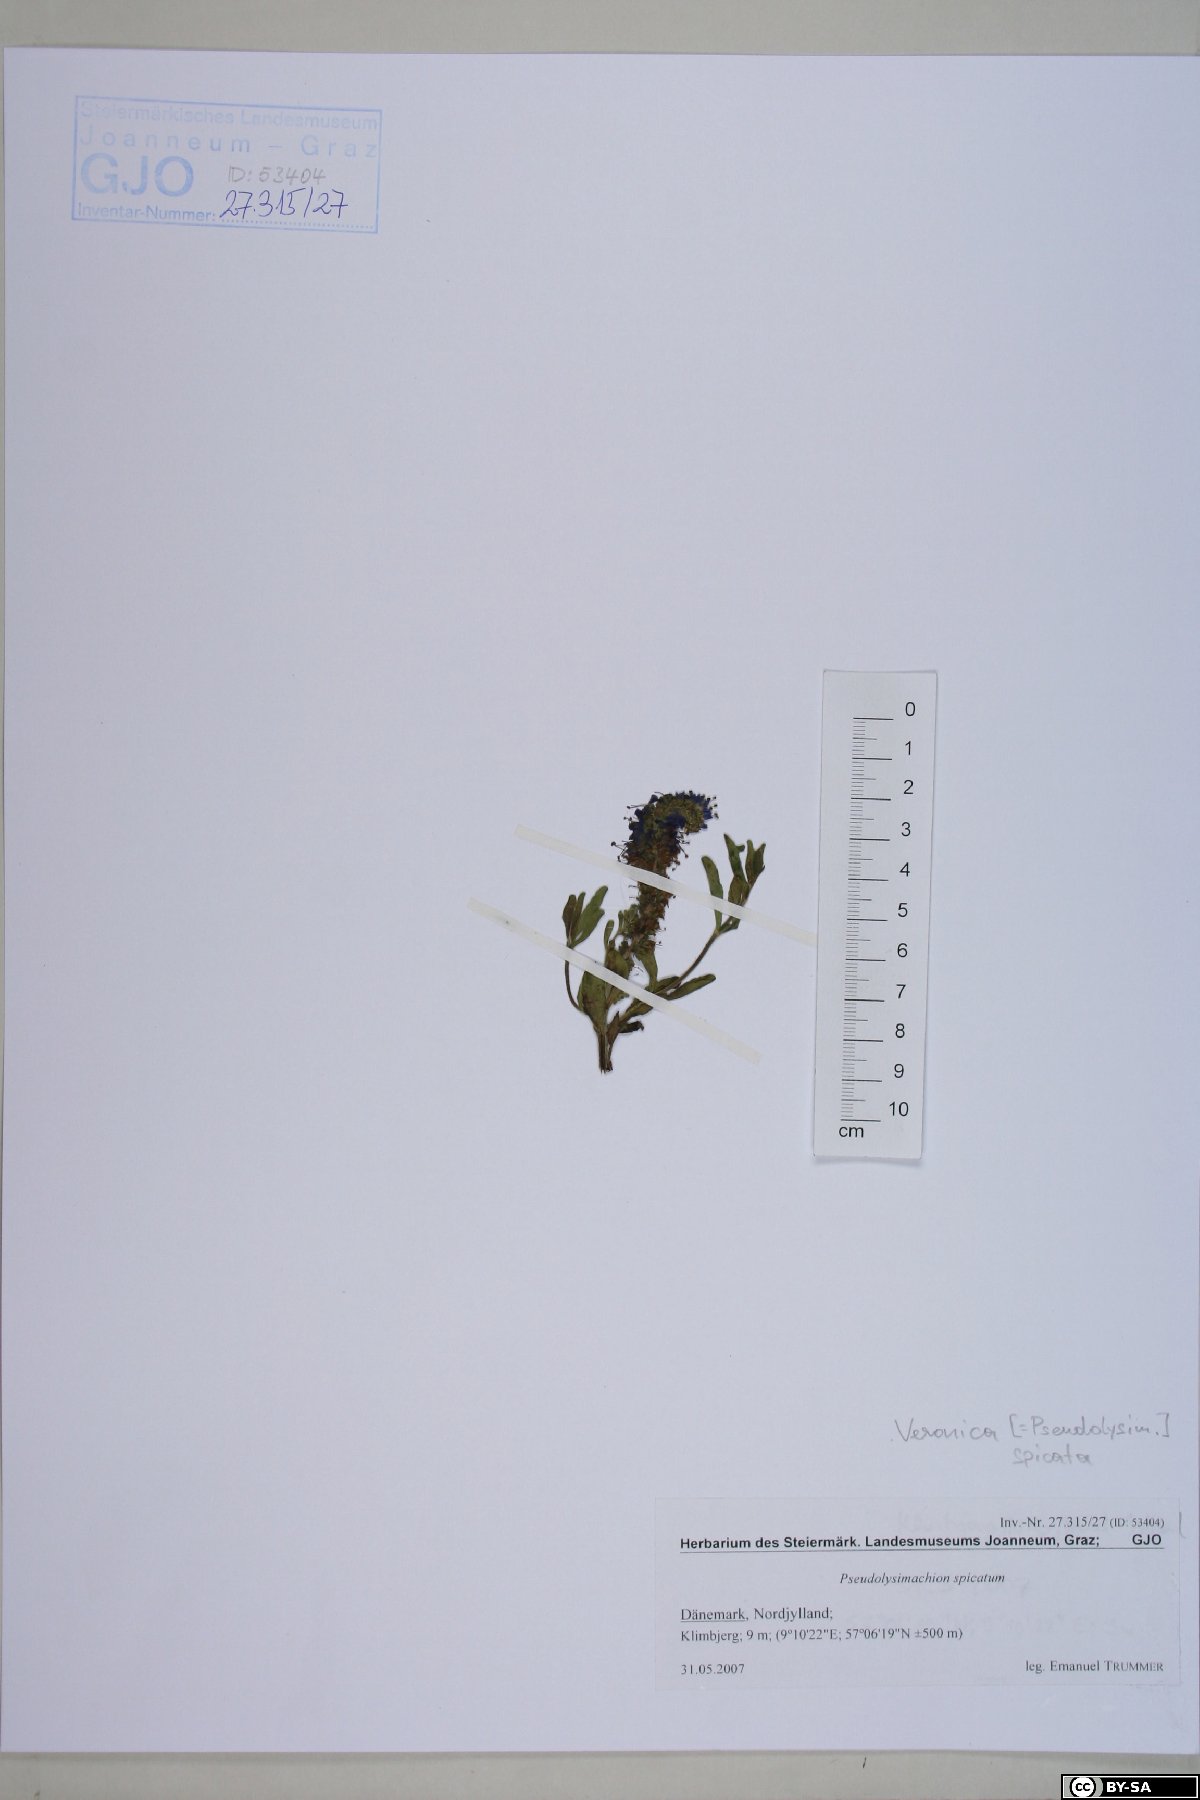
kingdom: Plantae
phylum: Tracheophyta
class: Magnoliopsida
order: Lamiales
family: Plantaginaceae
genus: Veronica
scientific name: Veronica spicata
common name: Spiked speedwell
